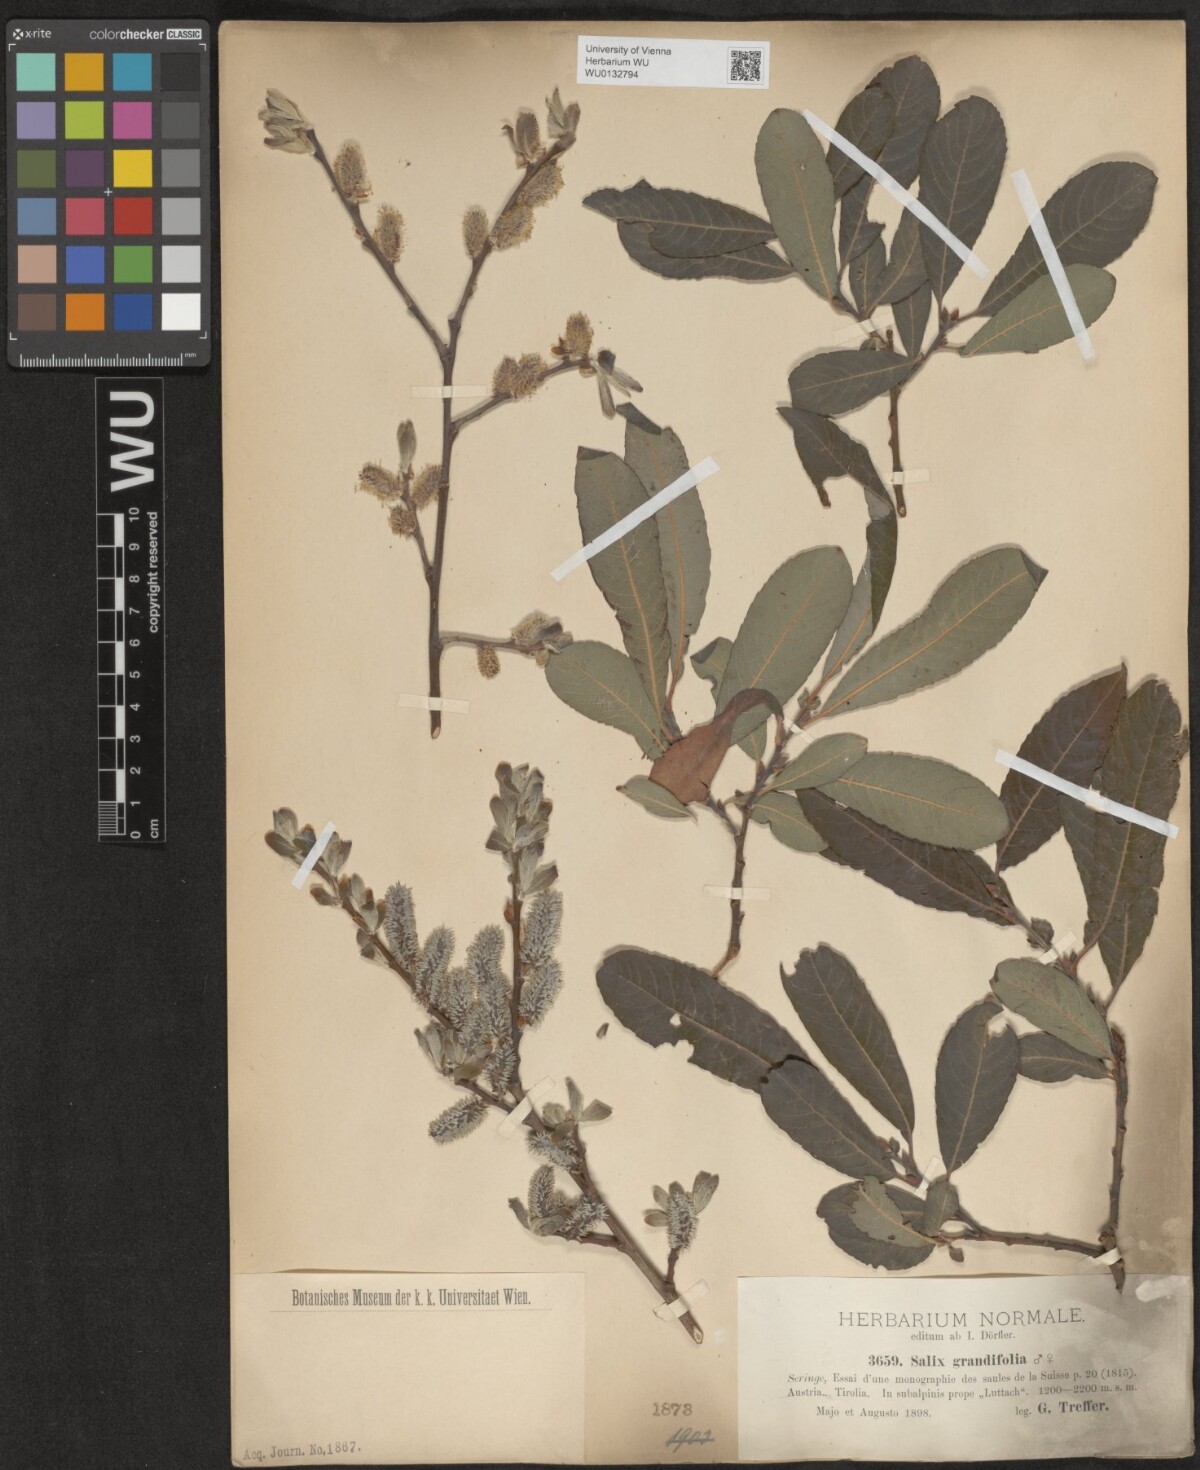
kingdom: Plantae
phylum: Tracheophyta
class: Magnoliopsida
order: Malpighiales
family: Salicaceae
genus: Salix
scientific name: Salix appendiculata
